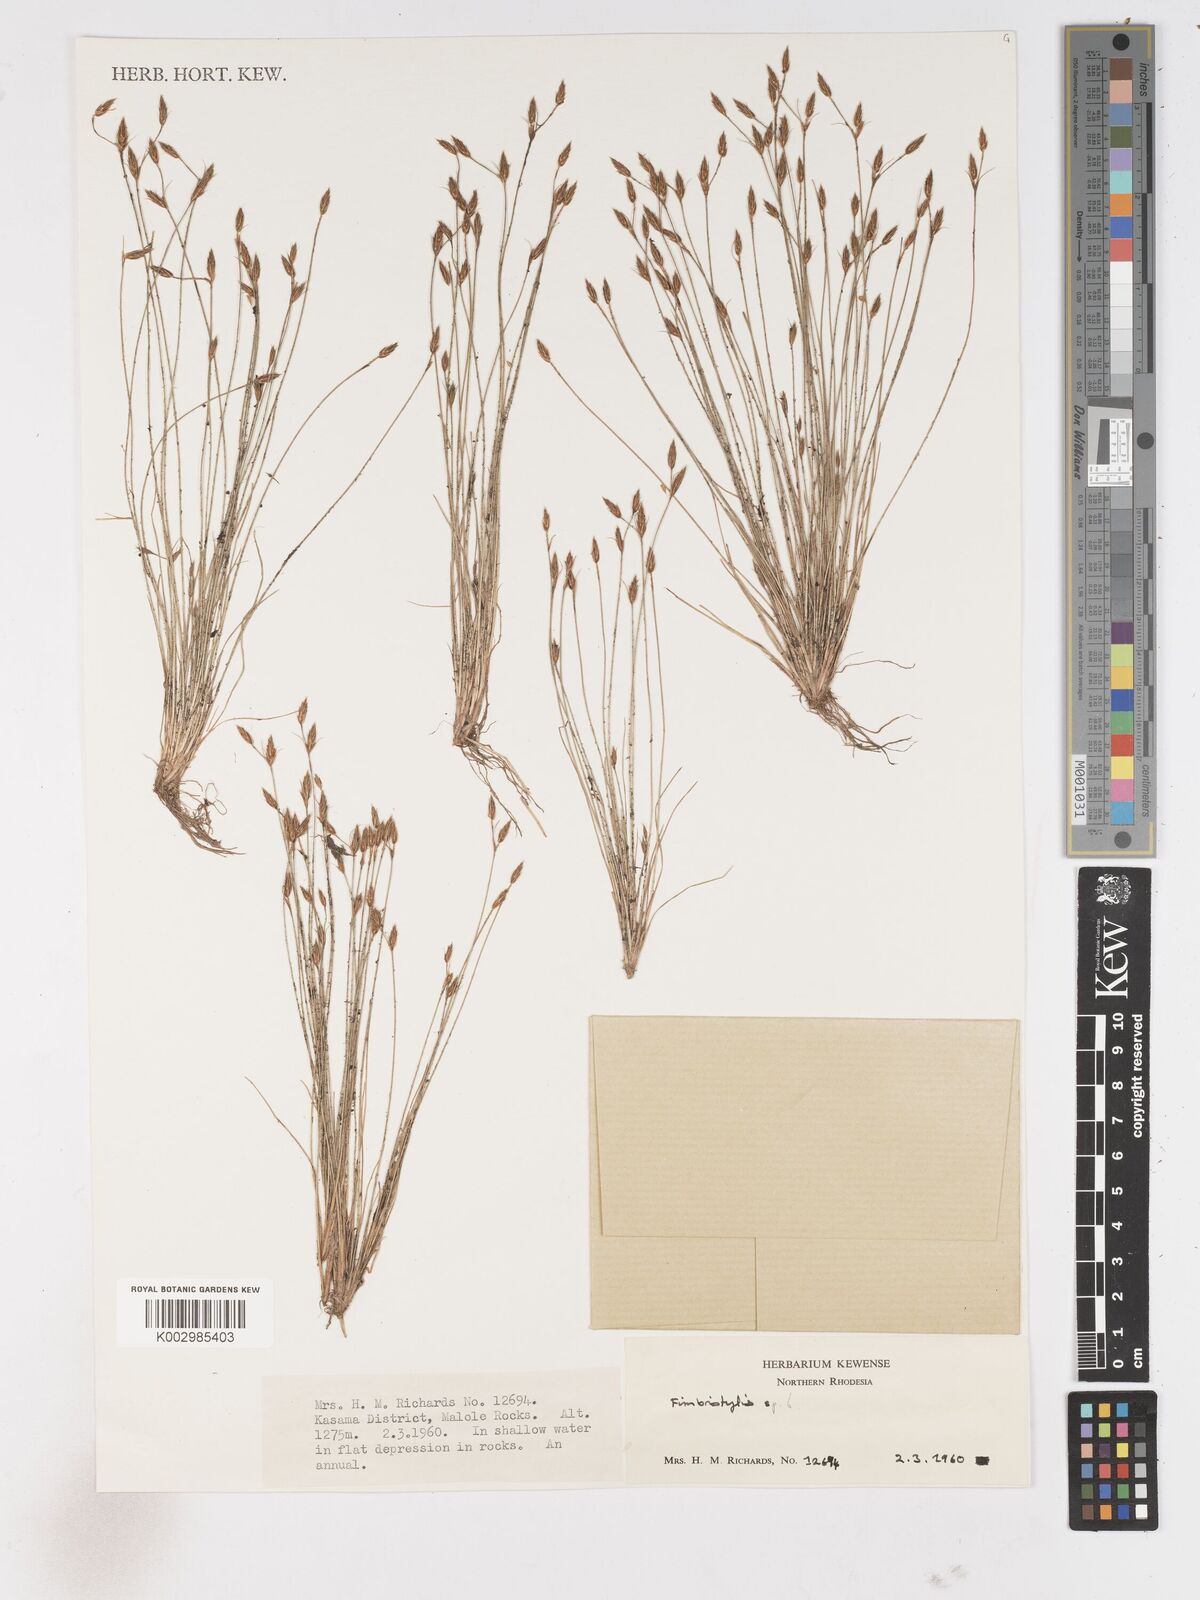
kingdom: Plantae
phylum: Tracheophyta
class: Liliopsida
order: Poales
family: Cyperaceae
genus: Fimbristylis
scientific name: Fimbristylis
